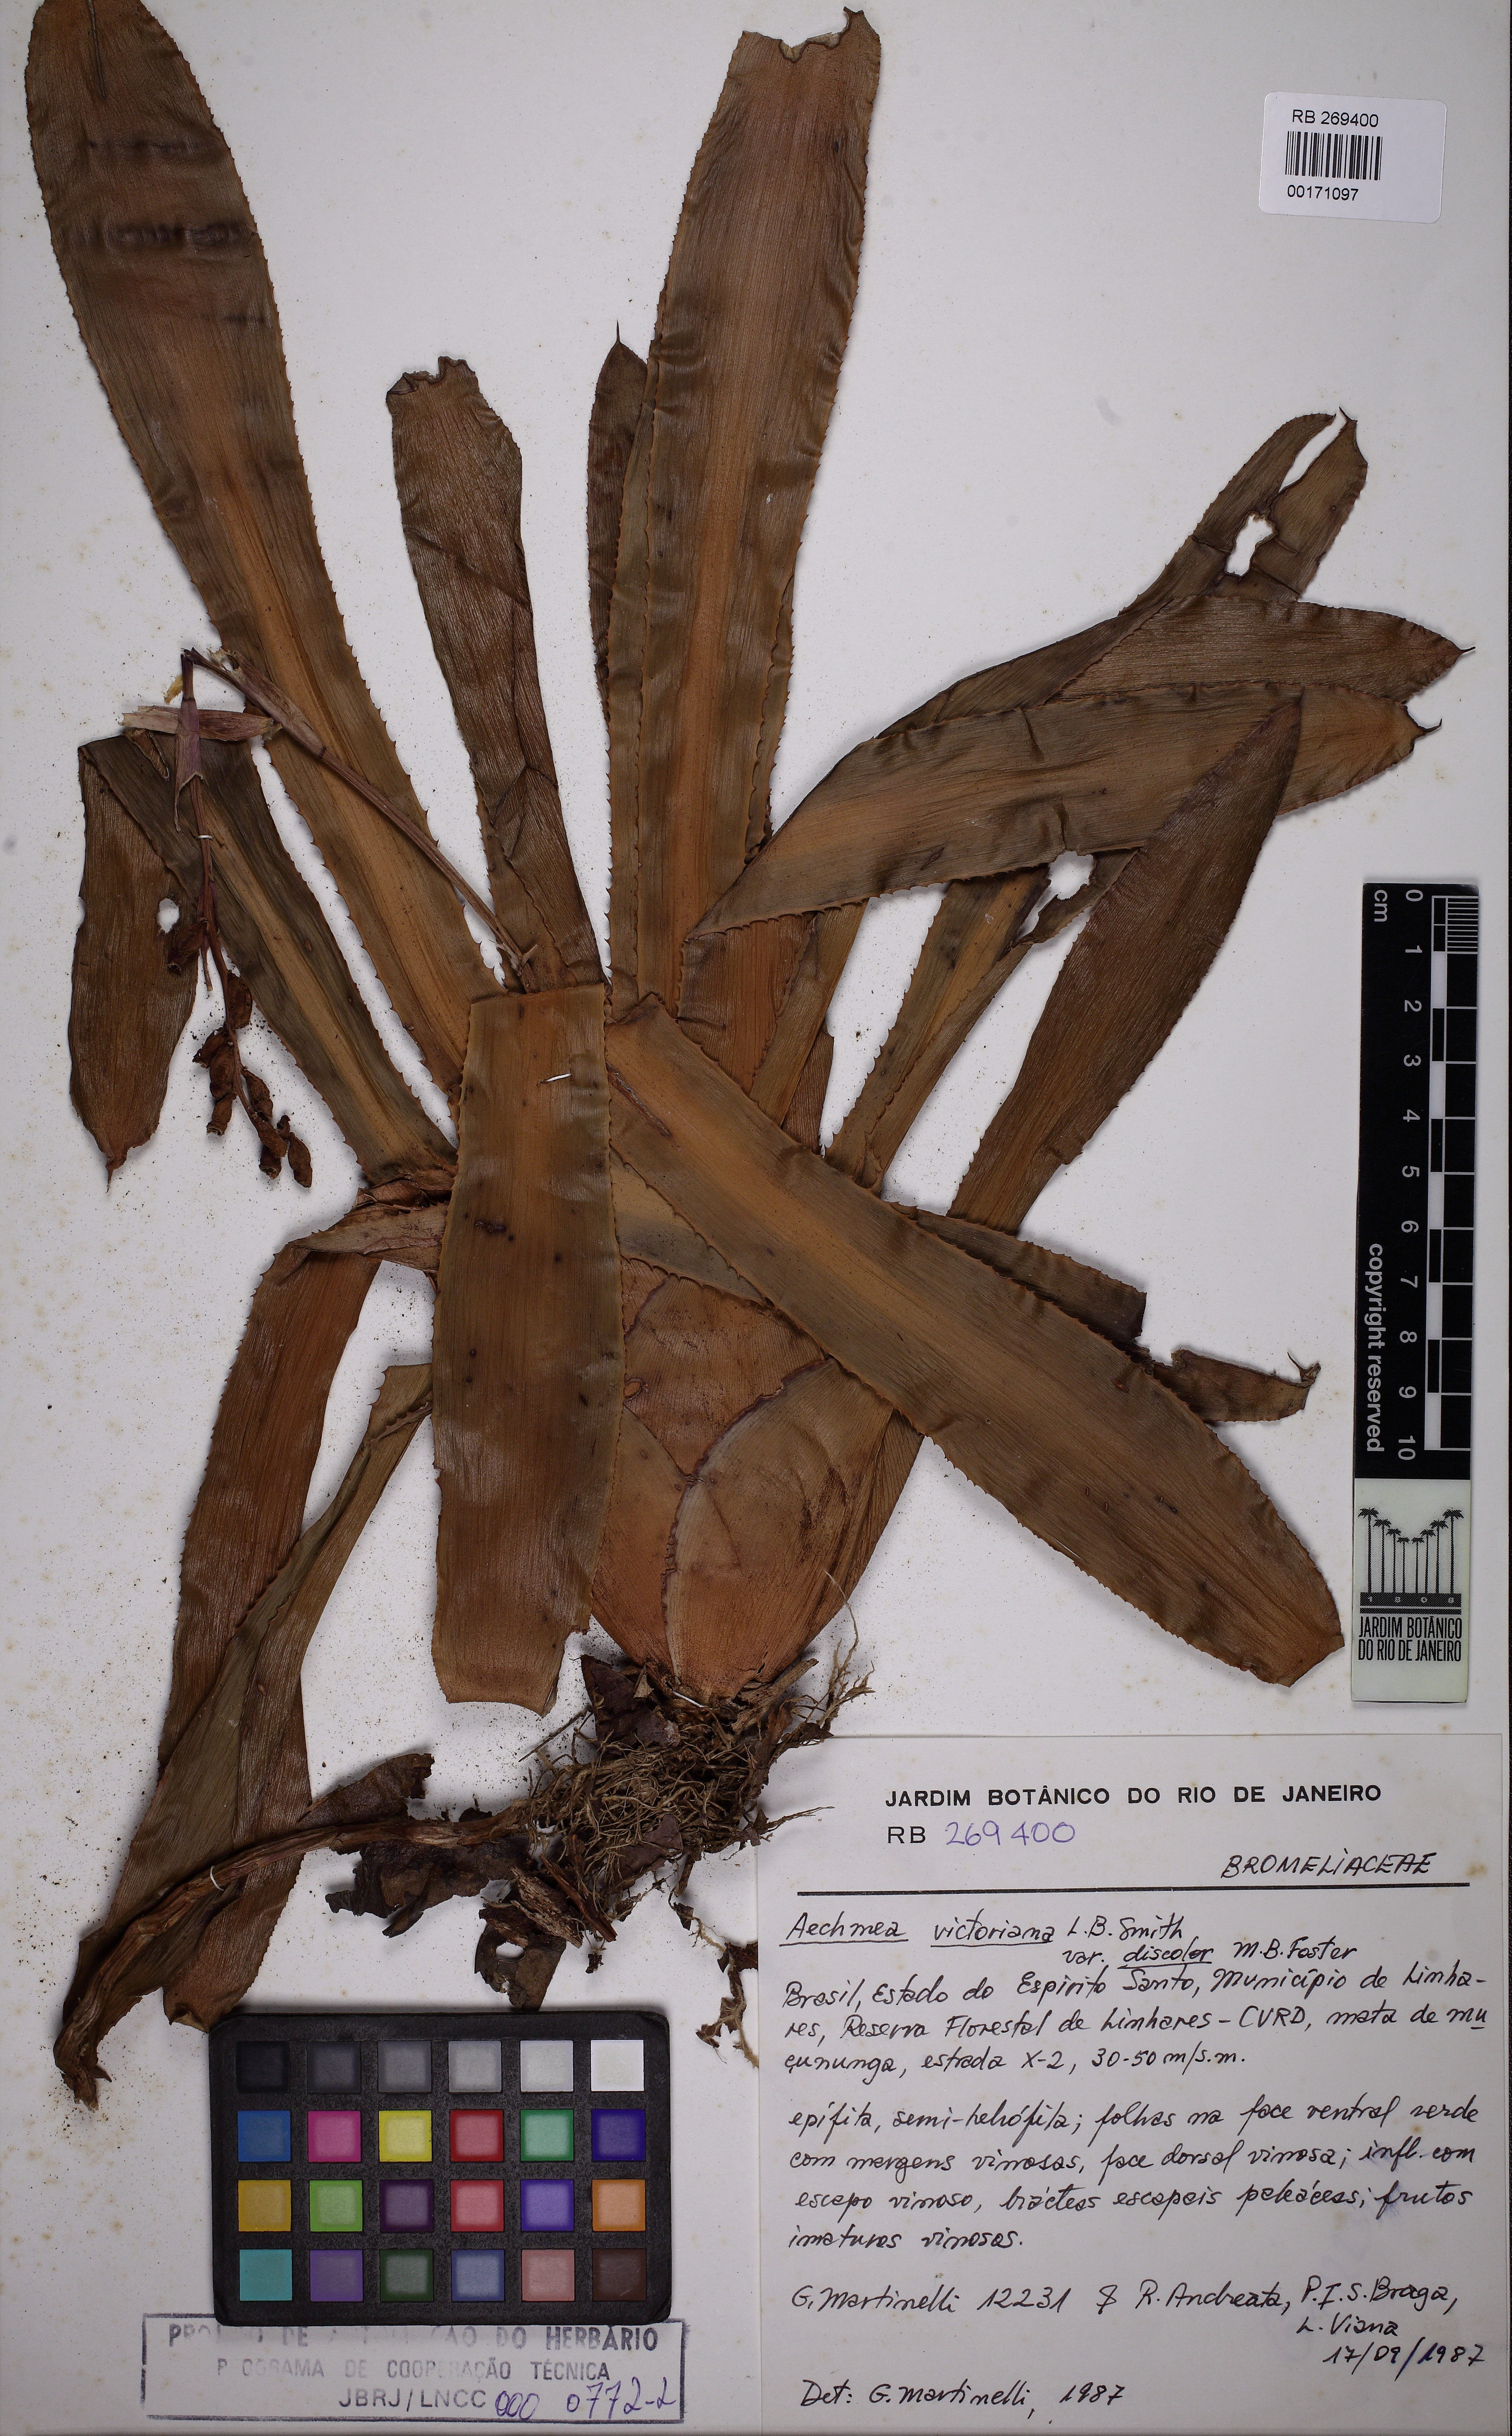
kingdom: Plantae
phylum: Tracheophyta
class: Liliopsida
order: Poales
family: Bromeliaceae
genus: Aechmea
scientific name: Aechmea victoriana
